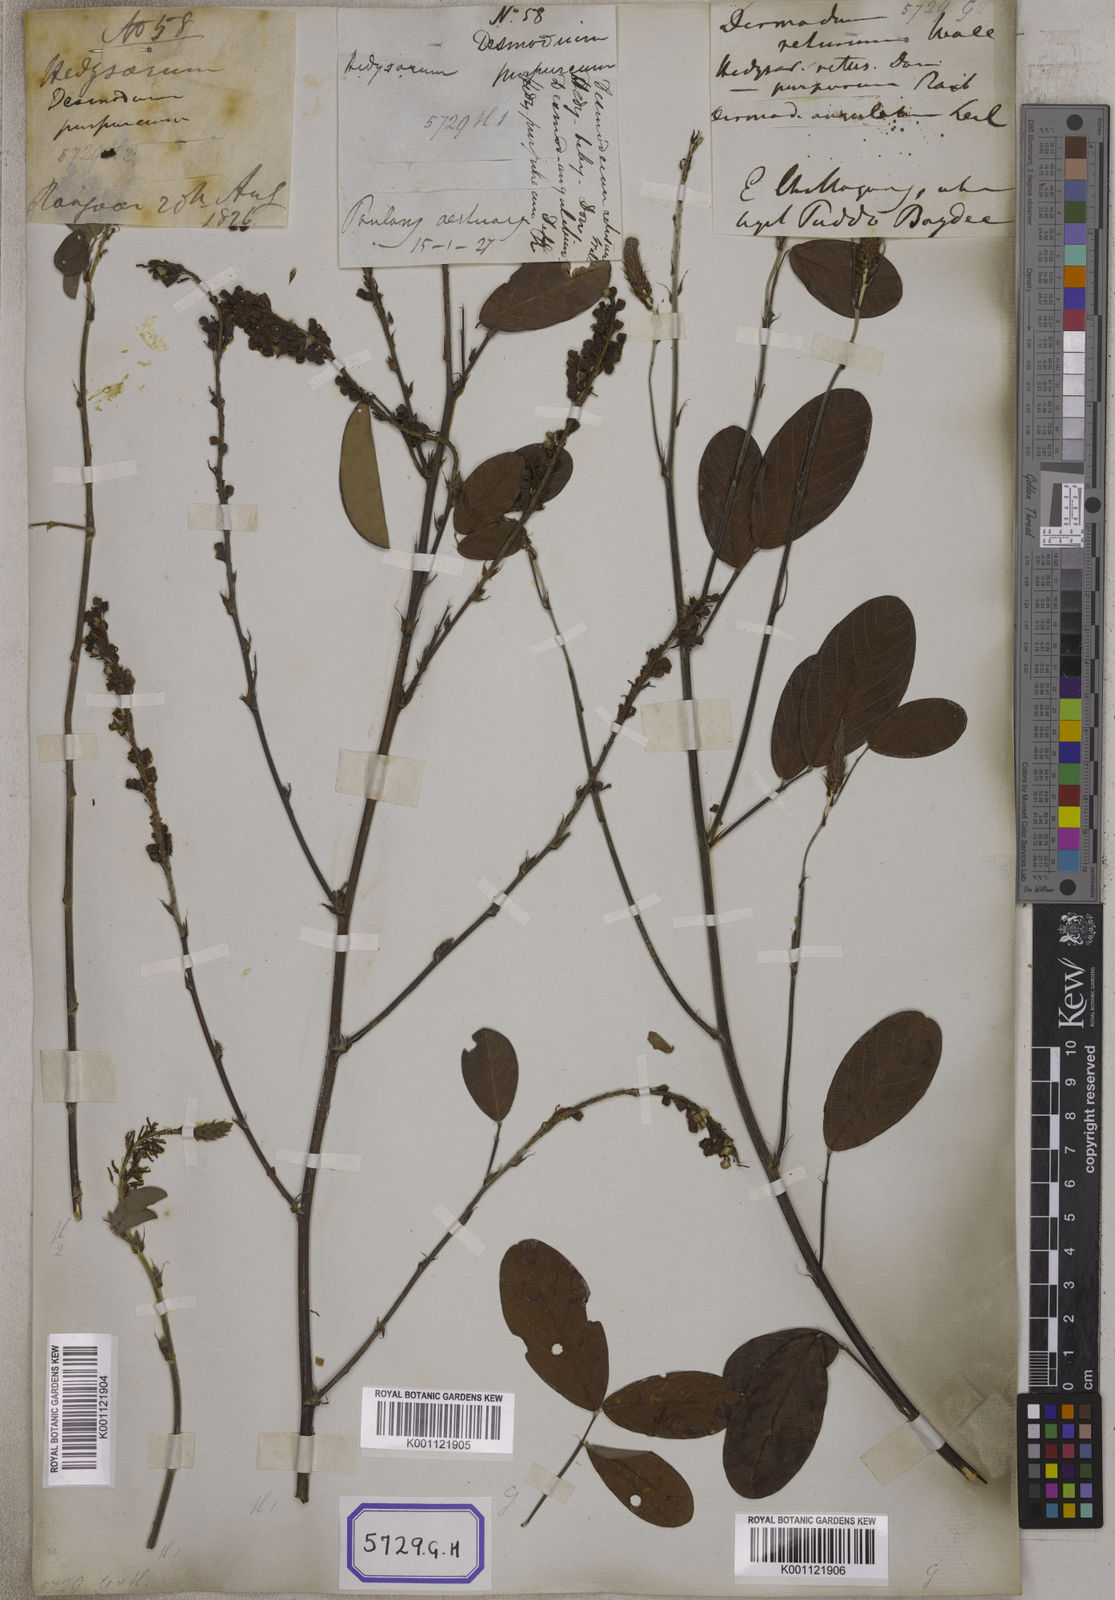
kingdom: Plantae
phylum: Tracheophyta
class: Magnoliopsida
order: Fabales
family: Fabaceae
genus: Desmodium
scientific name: Desmodium
